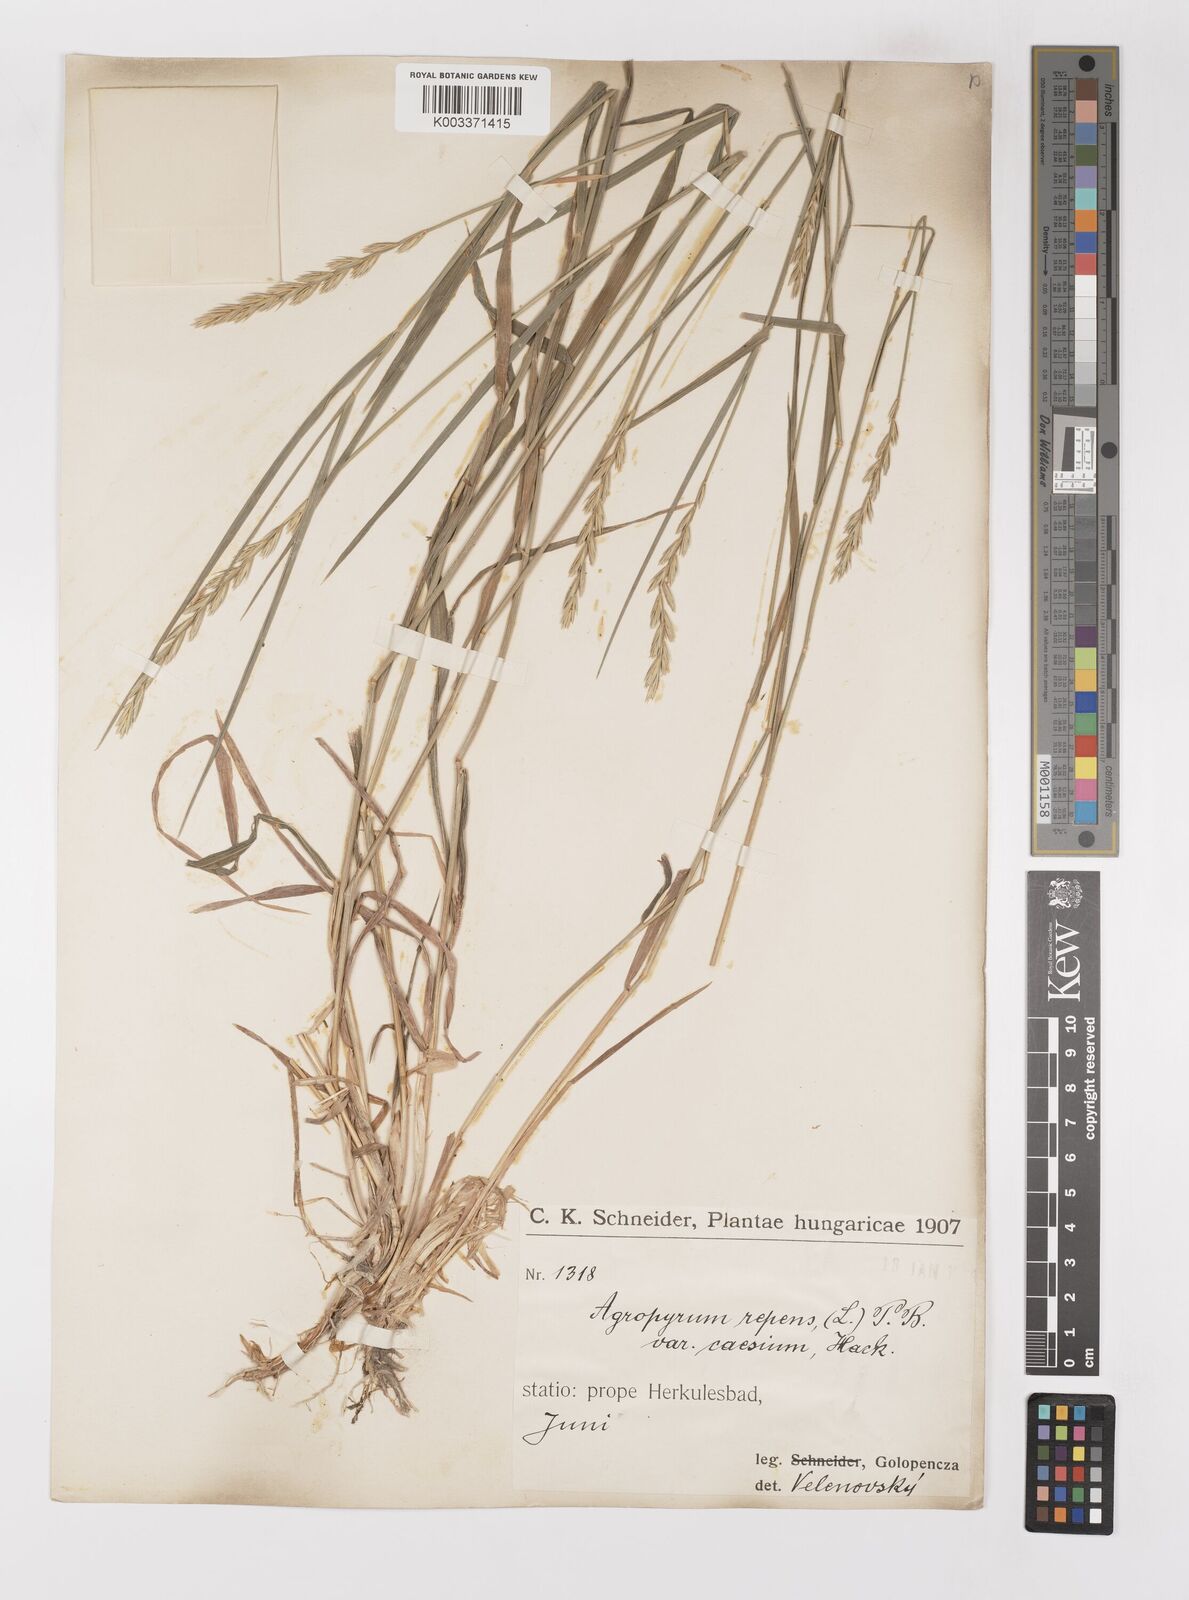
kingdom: Plantae
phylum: Tracheophyta
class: Liliopsida
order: Poales
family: Poaceae
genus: Elymus
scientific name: Elymus repens
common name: Quackgrass
